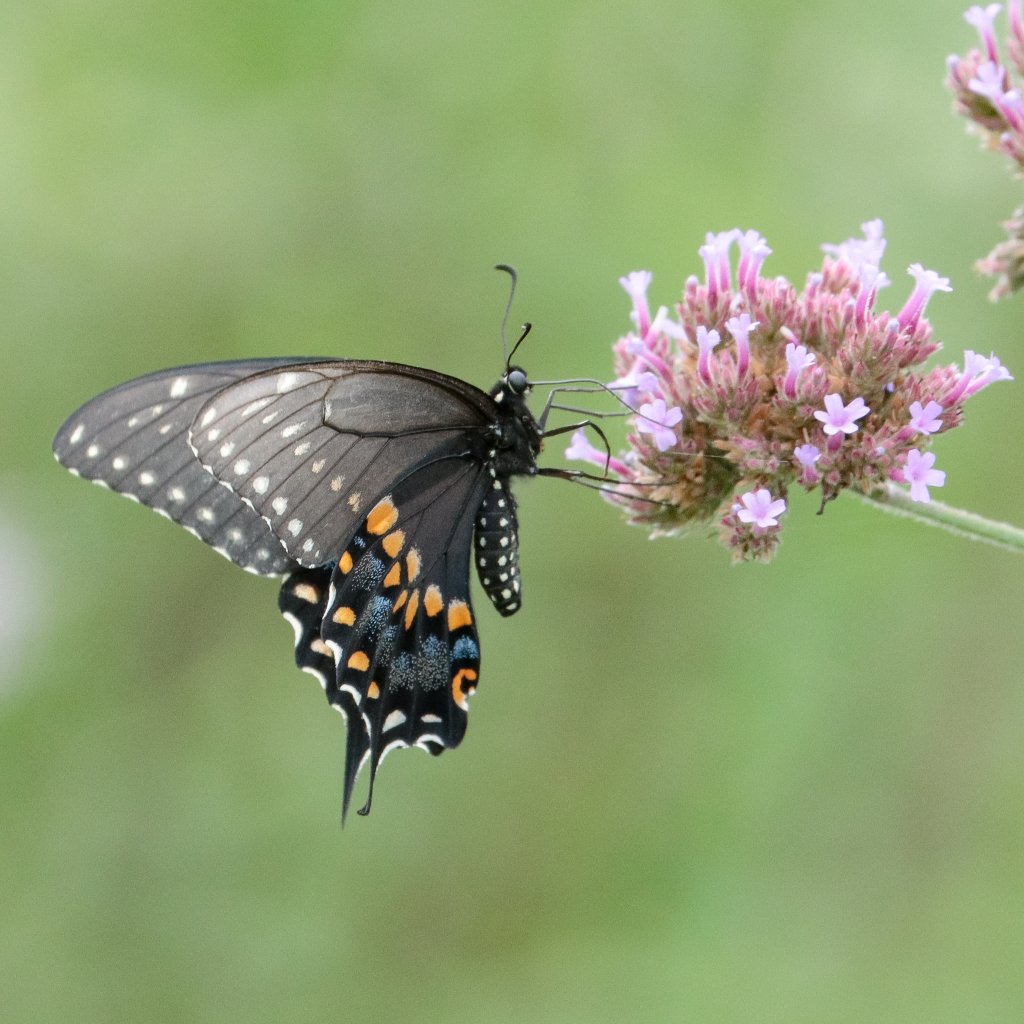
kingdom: Animalia
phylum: Arthropoda
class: Insecta
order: Lepidoptera
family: Papilionidae
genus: Papilio
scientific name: Papilio polyxenes
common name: Black Swallowtail
